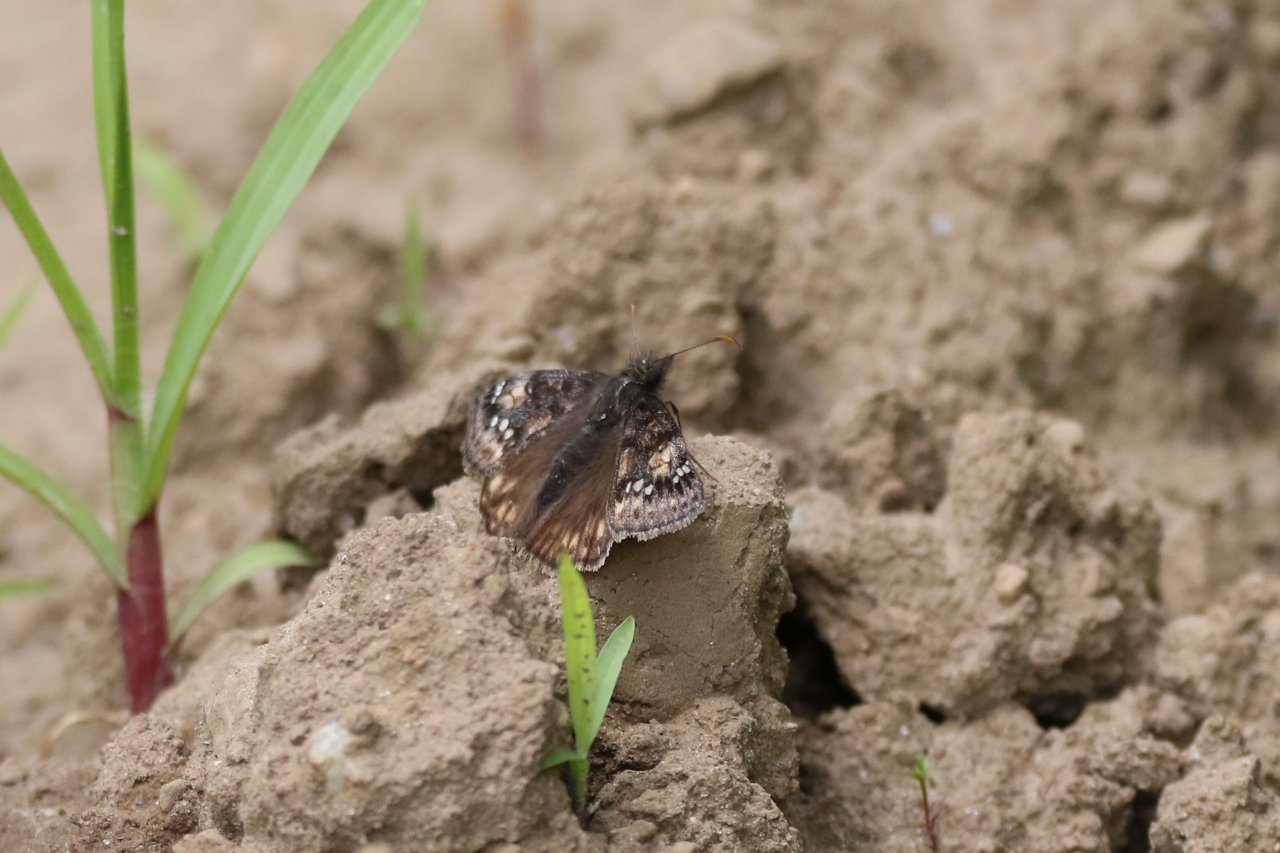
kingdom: Animalia
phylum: Arthropoda
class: Insecta
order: Lepidoptera
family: Hesperiidae
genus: Gesta
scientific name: Gesta
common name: Juvenal's Duskywing
